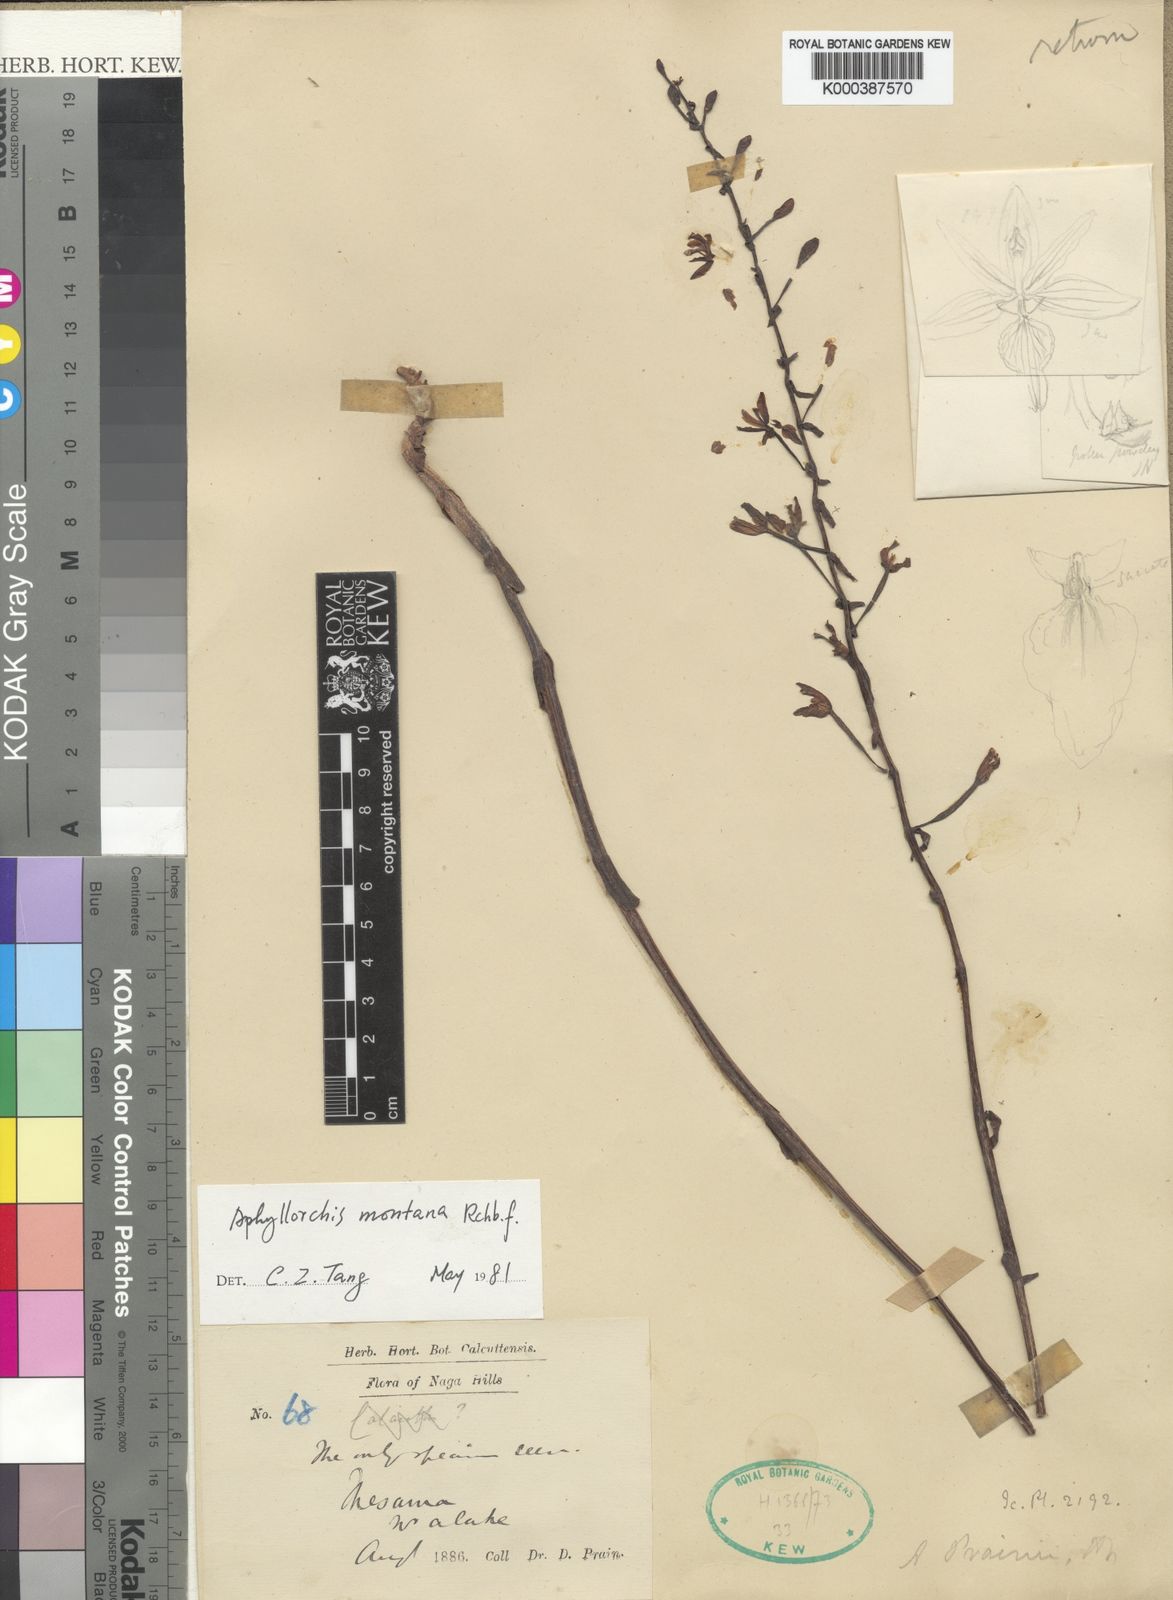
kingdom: Plantae
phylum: Tracheophyta
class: Liliopsida
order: Asparagales
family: Orchidaceae
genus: Aphyllorchis
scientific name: Aphyllorchis montana
